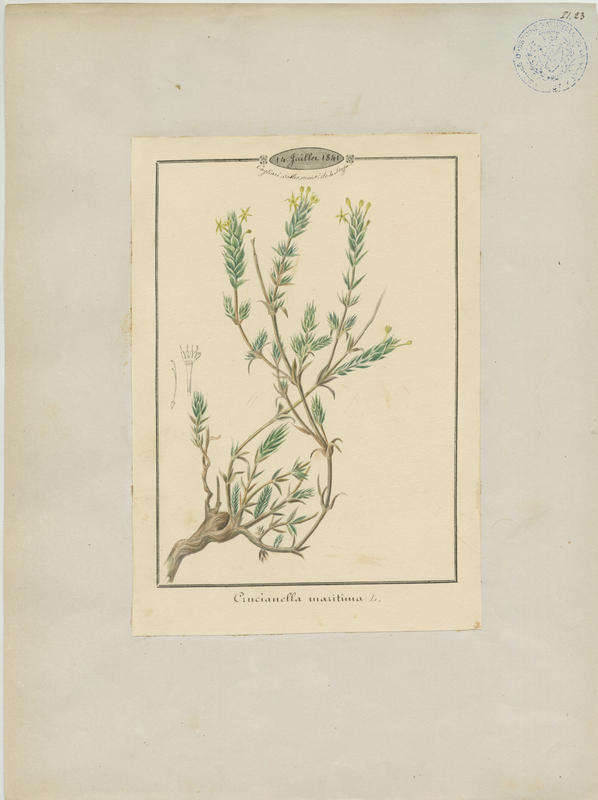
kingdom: Plantae
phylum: Tracheophyta
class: Magnoliopsida
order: Gentianales
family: Rubiaceae
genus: Crucianella
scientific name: Crucianella maritima
